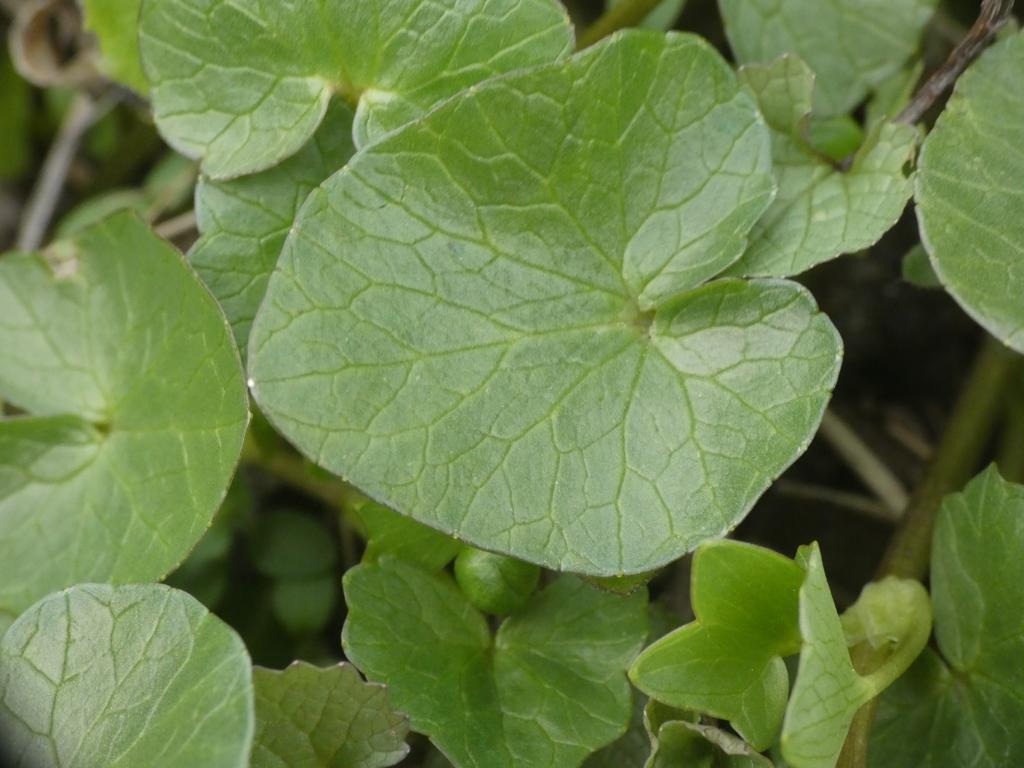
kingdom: Plantae
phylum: Tracheophyta
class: Magnoliopsida
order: Ranunculales
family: Ranunculaceae
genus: Ficaria
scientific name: Ficaria verna
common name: Vorterod
